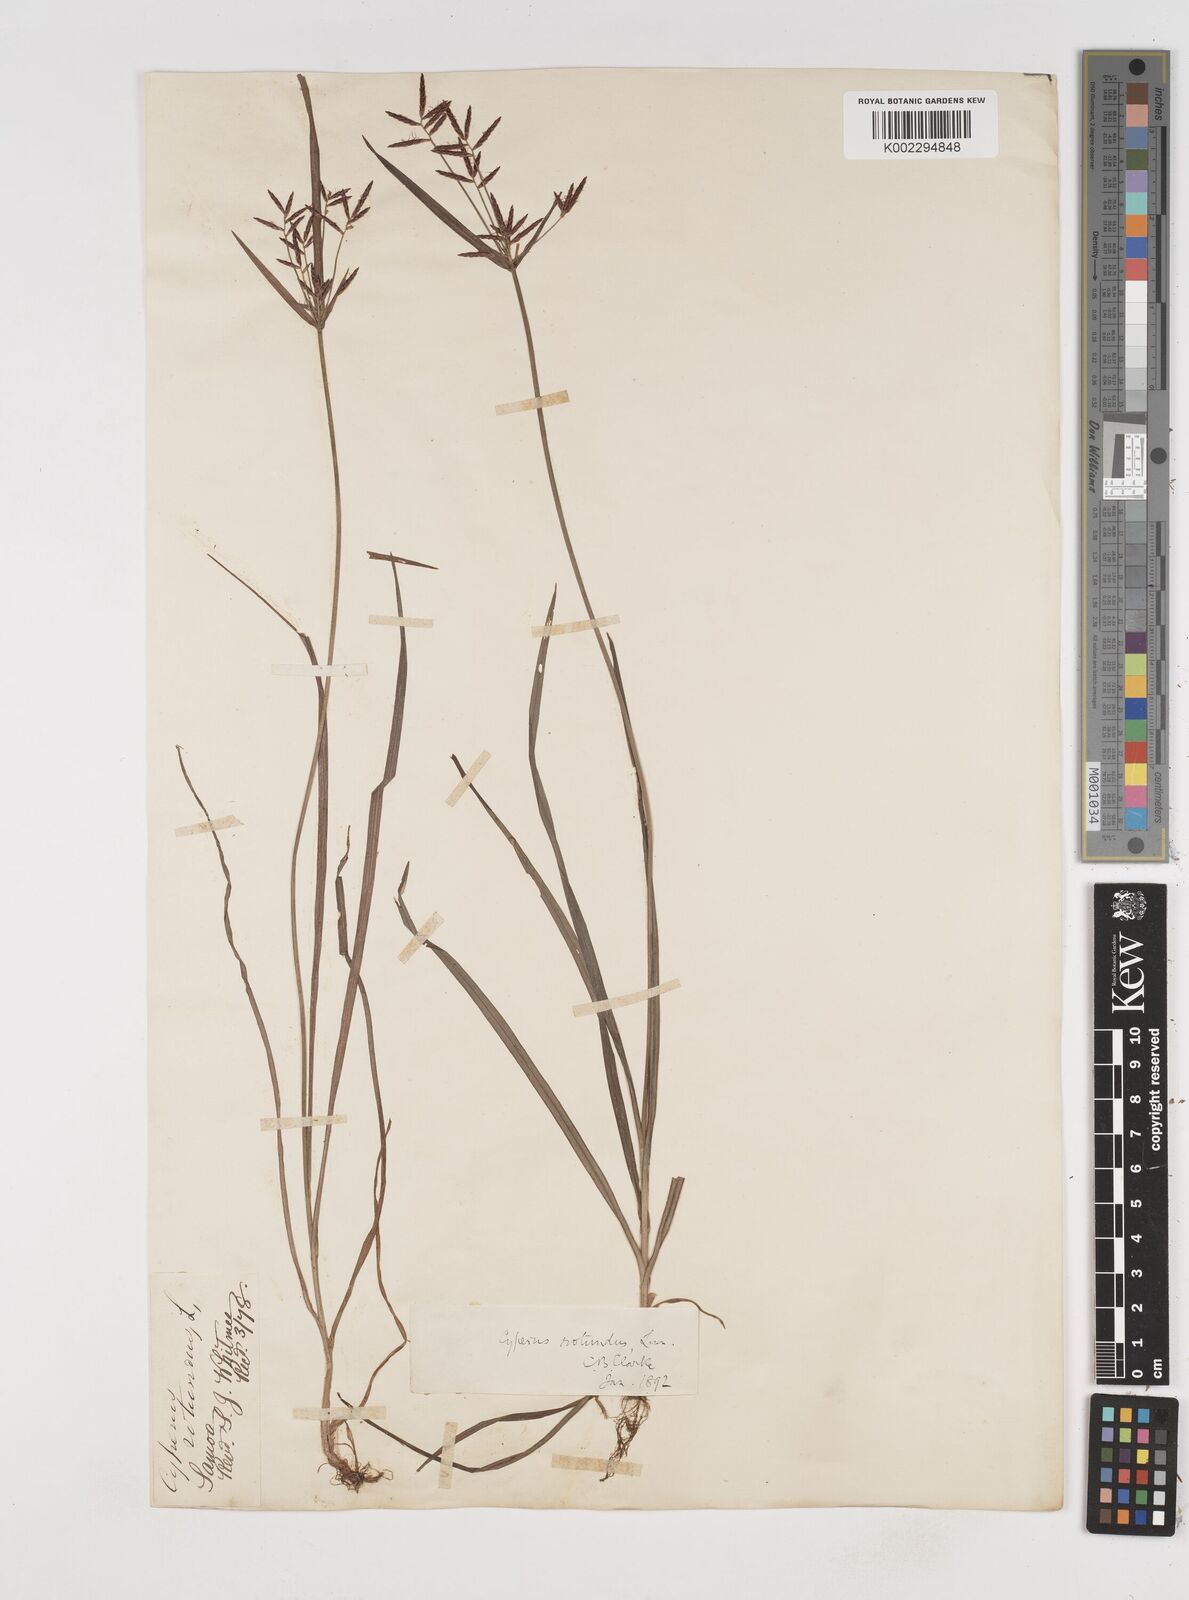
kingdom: Plantae
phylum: Tracheophyta
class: Liliopsida
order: Poales
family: Cyperaceae
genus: Cyperus
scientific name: Cyperus rotundus
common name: Nutgrass
